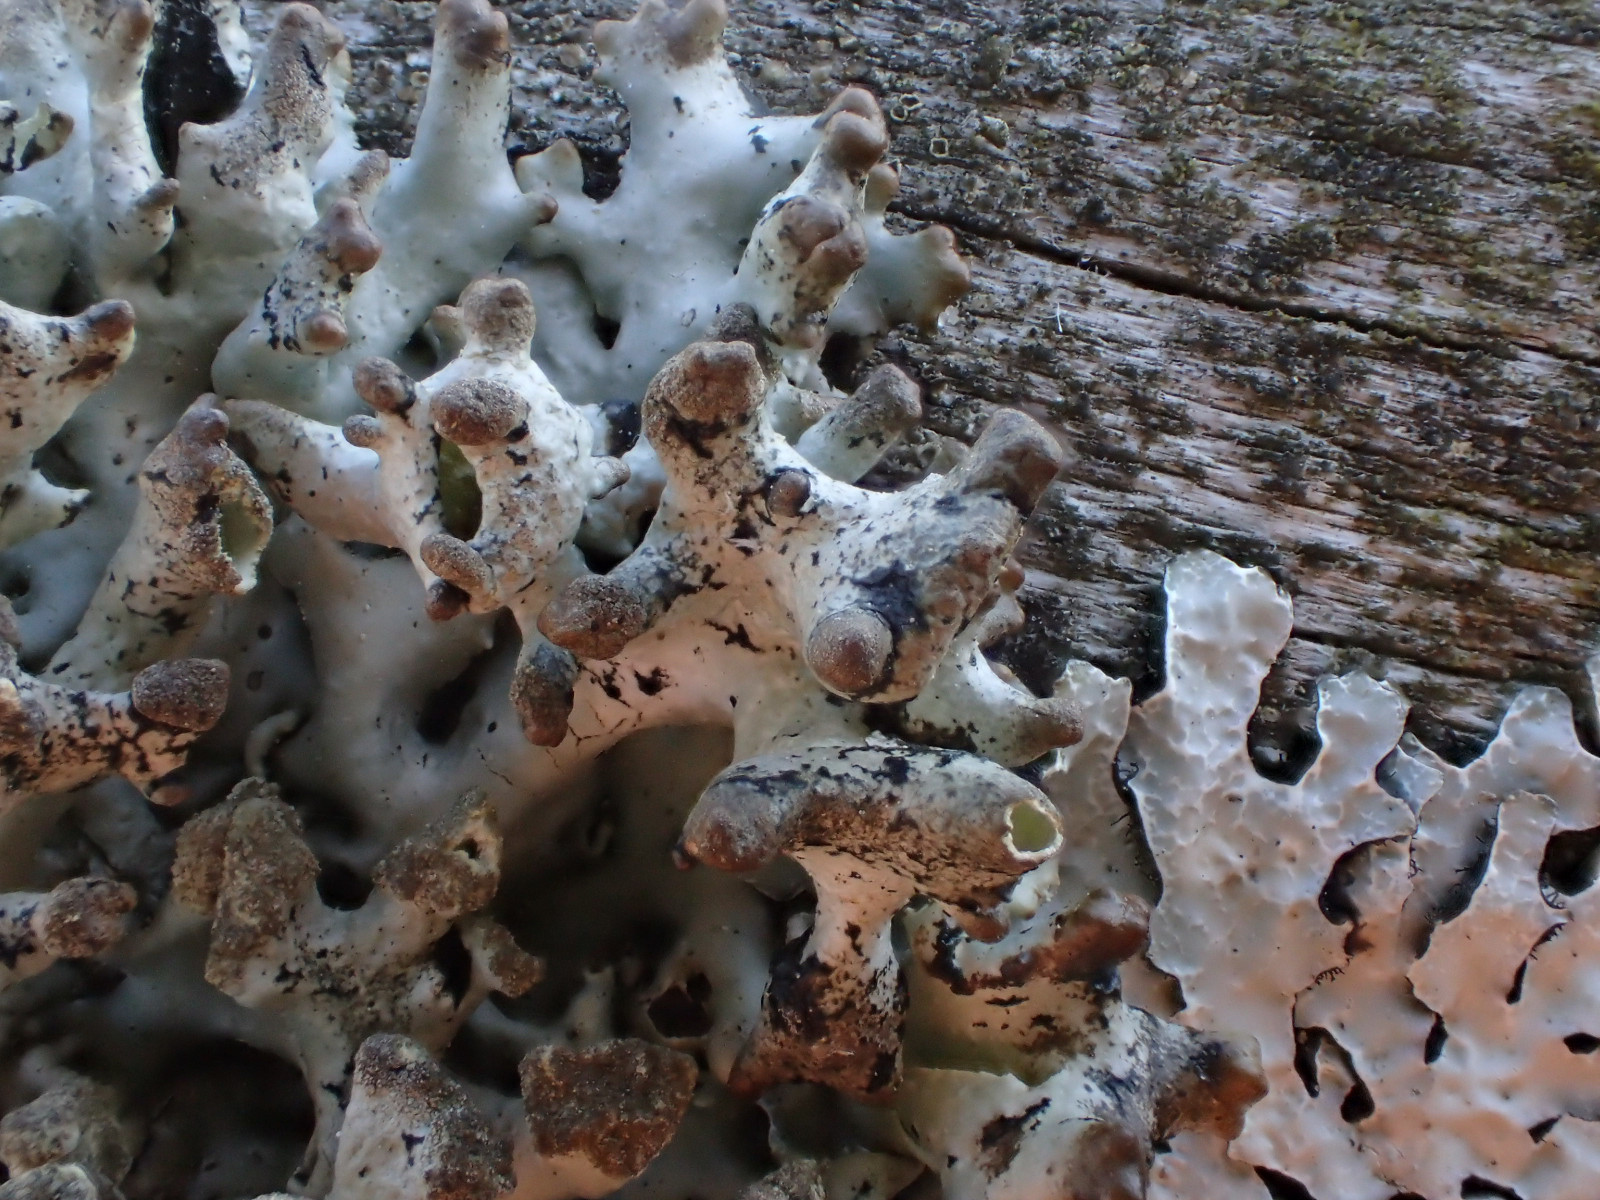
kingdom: Fungi
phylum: Ascomycota
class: Lecanoromycetes
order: Lecanorales
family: Parmeliaceae
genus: Hypogymnia
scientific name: Hypogymnia tubulosa
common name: finger-kvistlav
